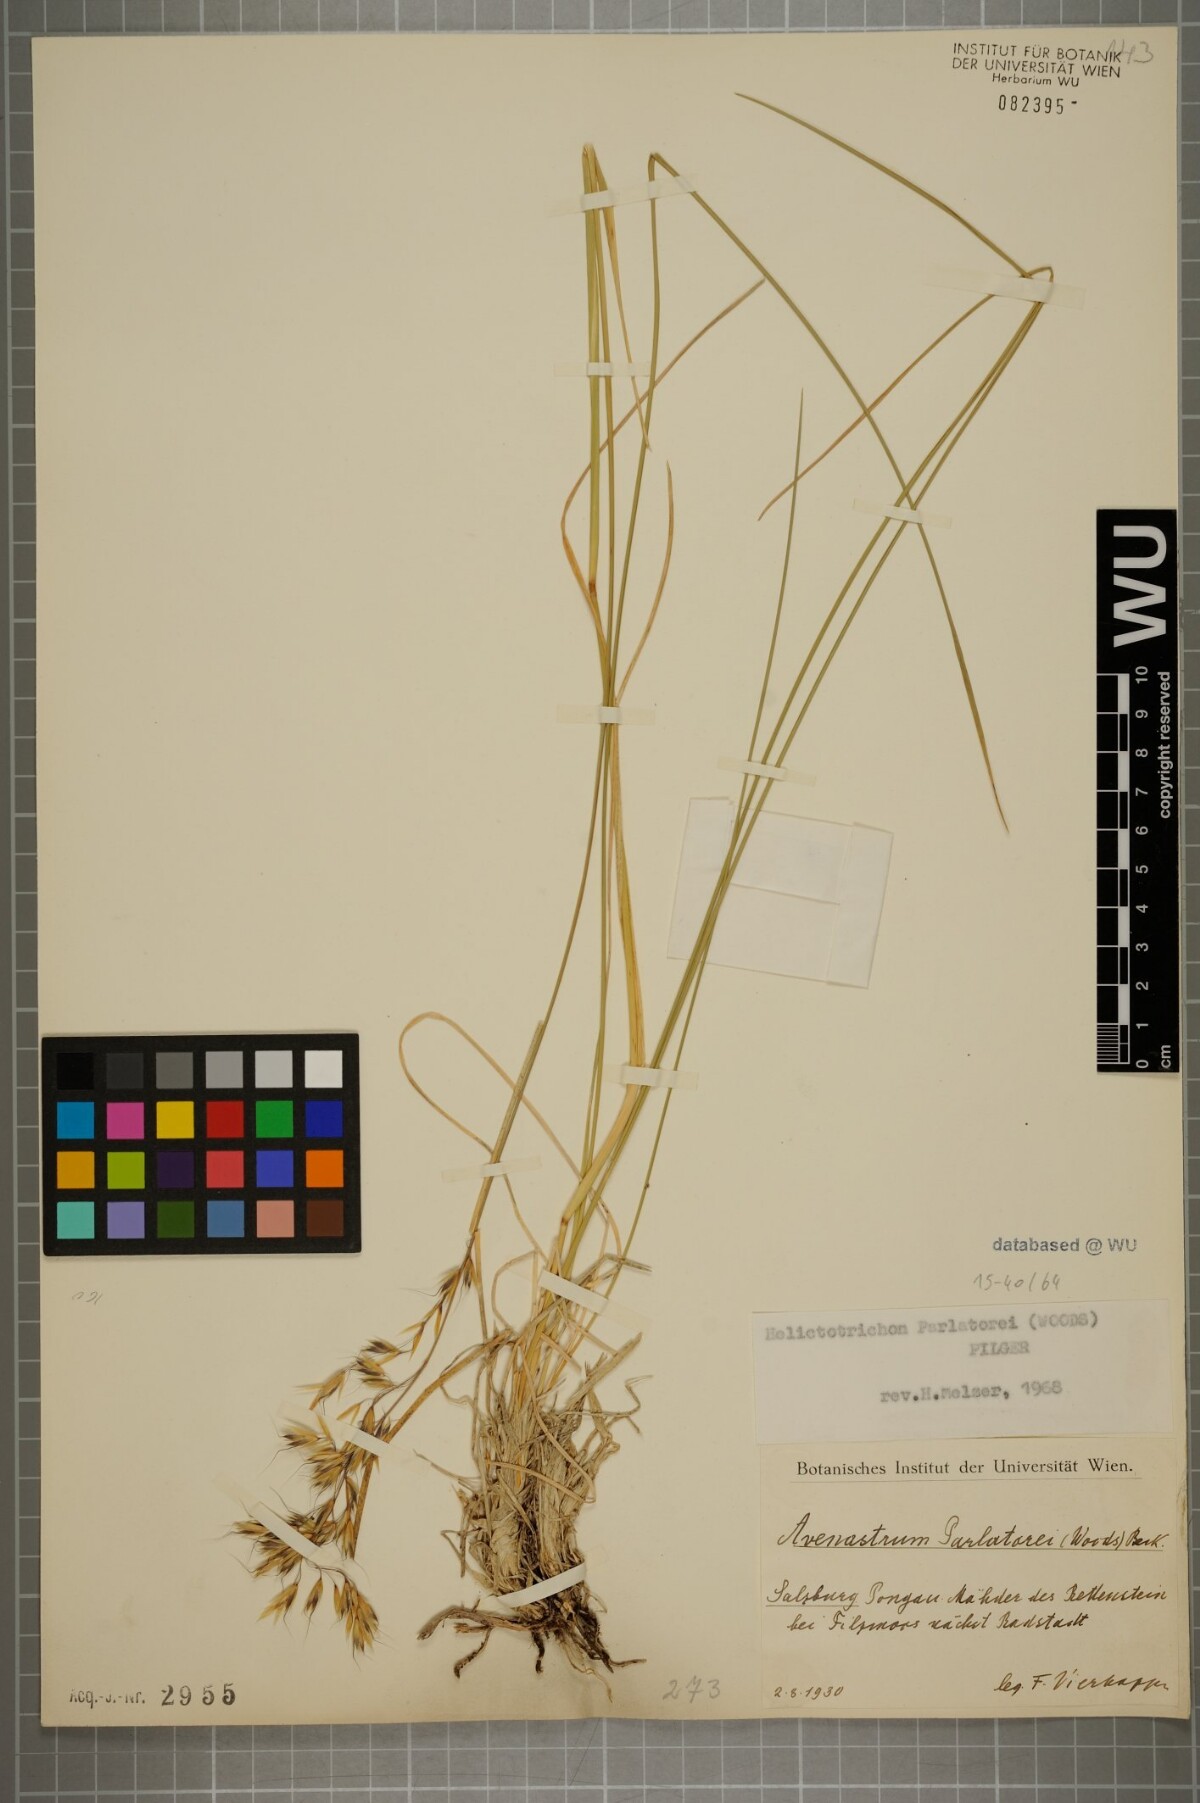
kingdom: Plantae
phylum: Tracheophyta
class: Liliopsida
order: Poales
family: Poaceae
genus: Helictotrichon
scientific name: Helictotrichon parlatorei
